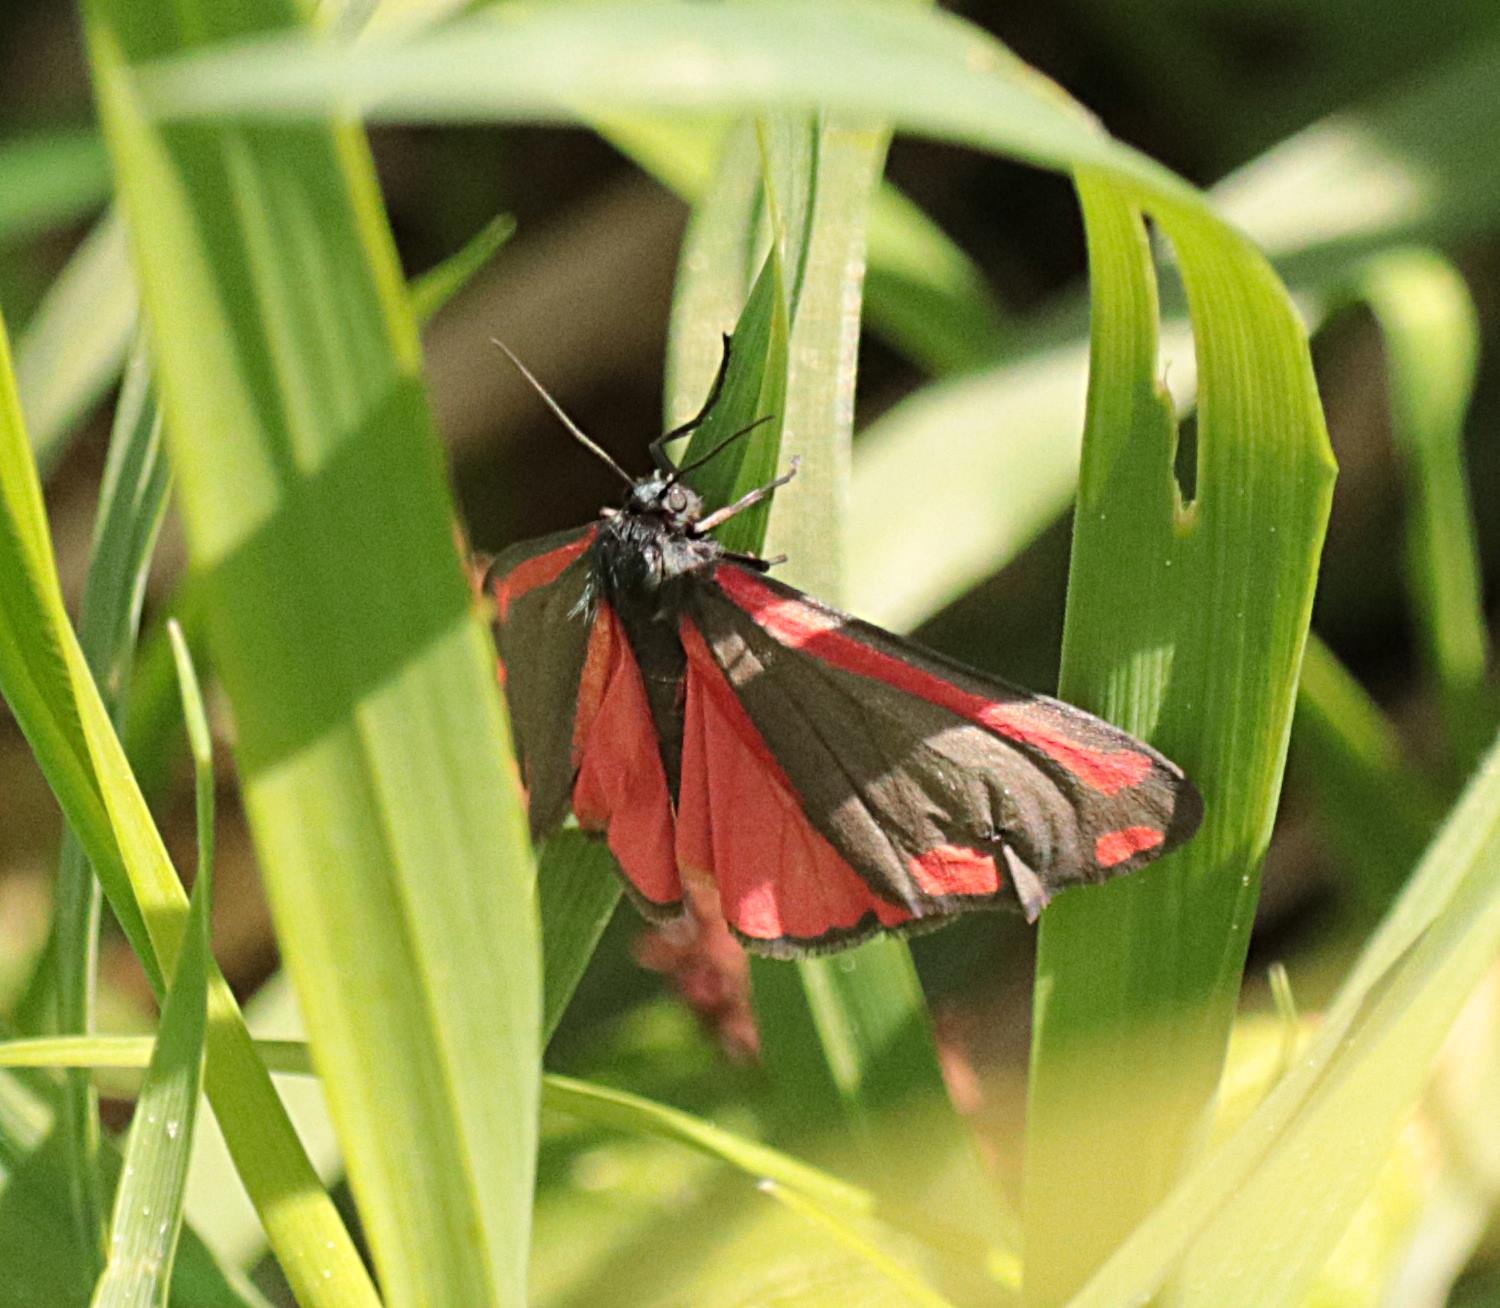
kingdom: Animalia
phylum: Arthropoda
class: Insecta
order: Lepidoptera
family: Erebidae
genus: Tyria
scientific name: Tyria jacobaeae
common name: Blodplet
